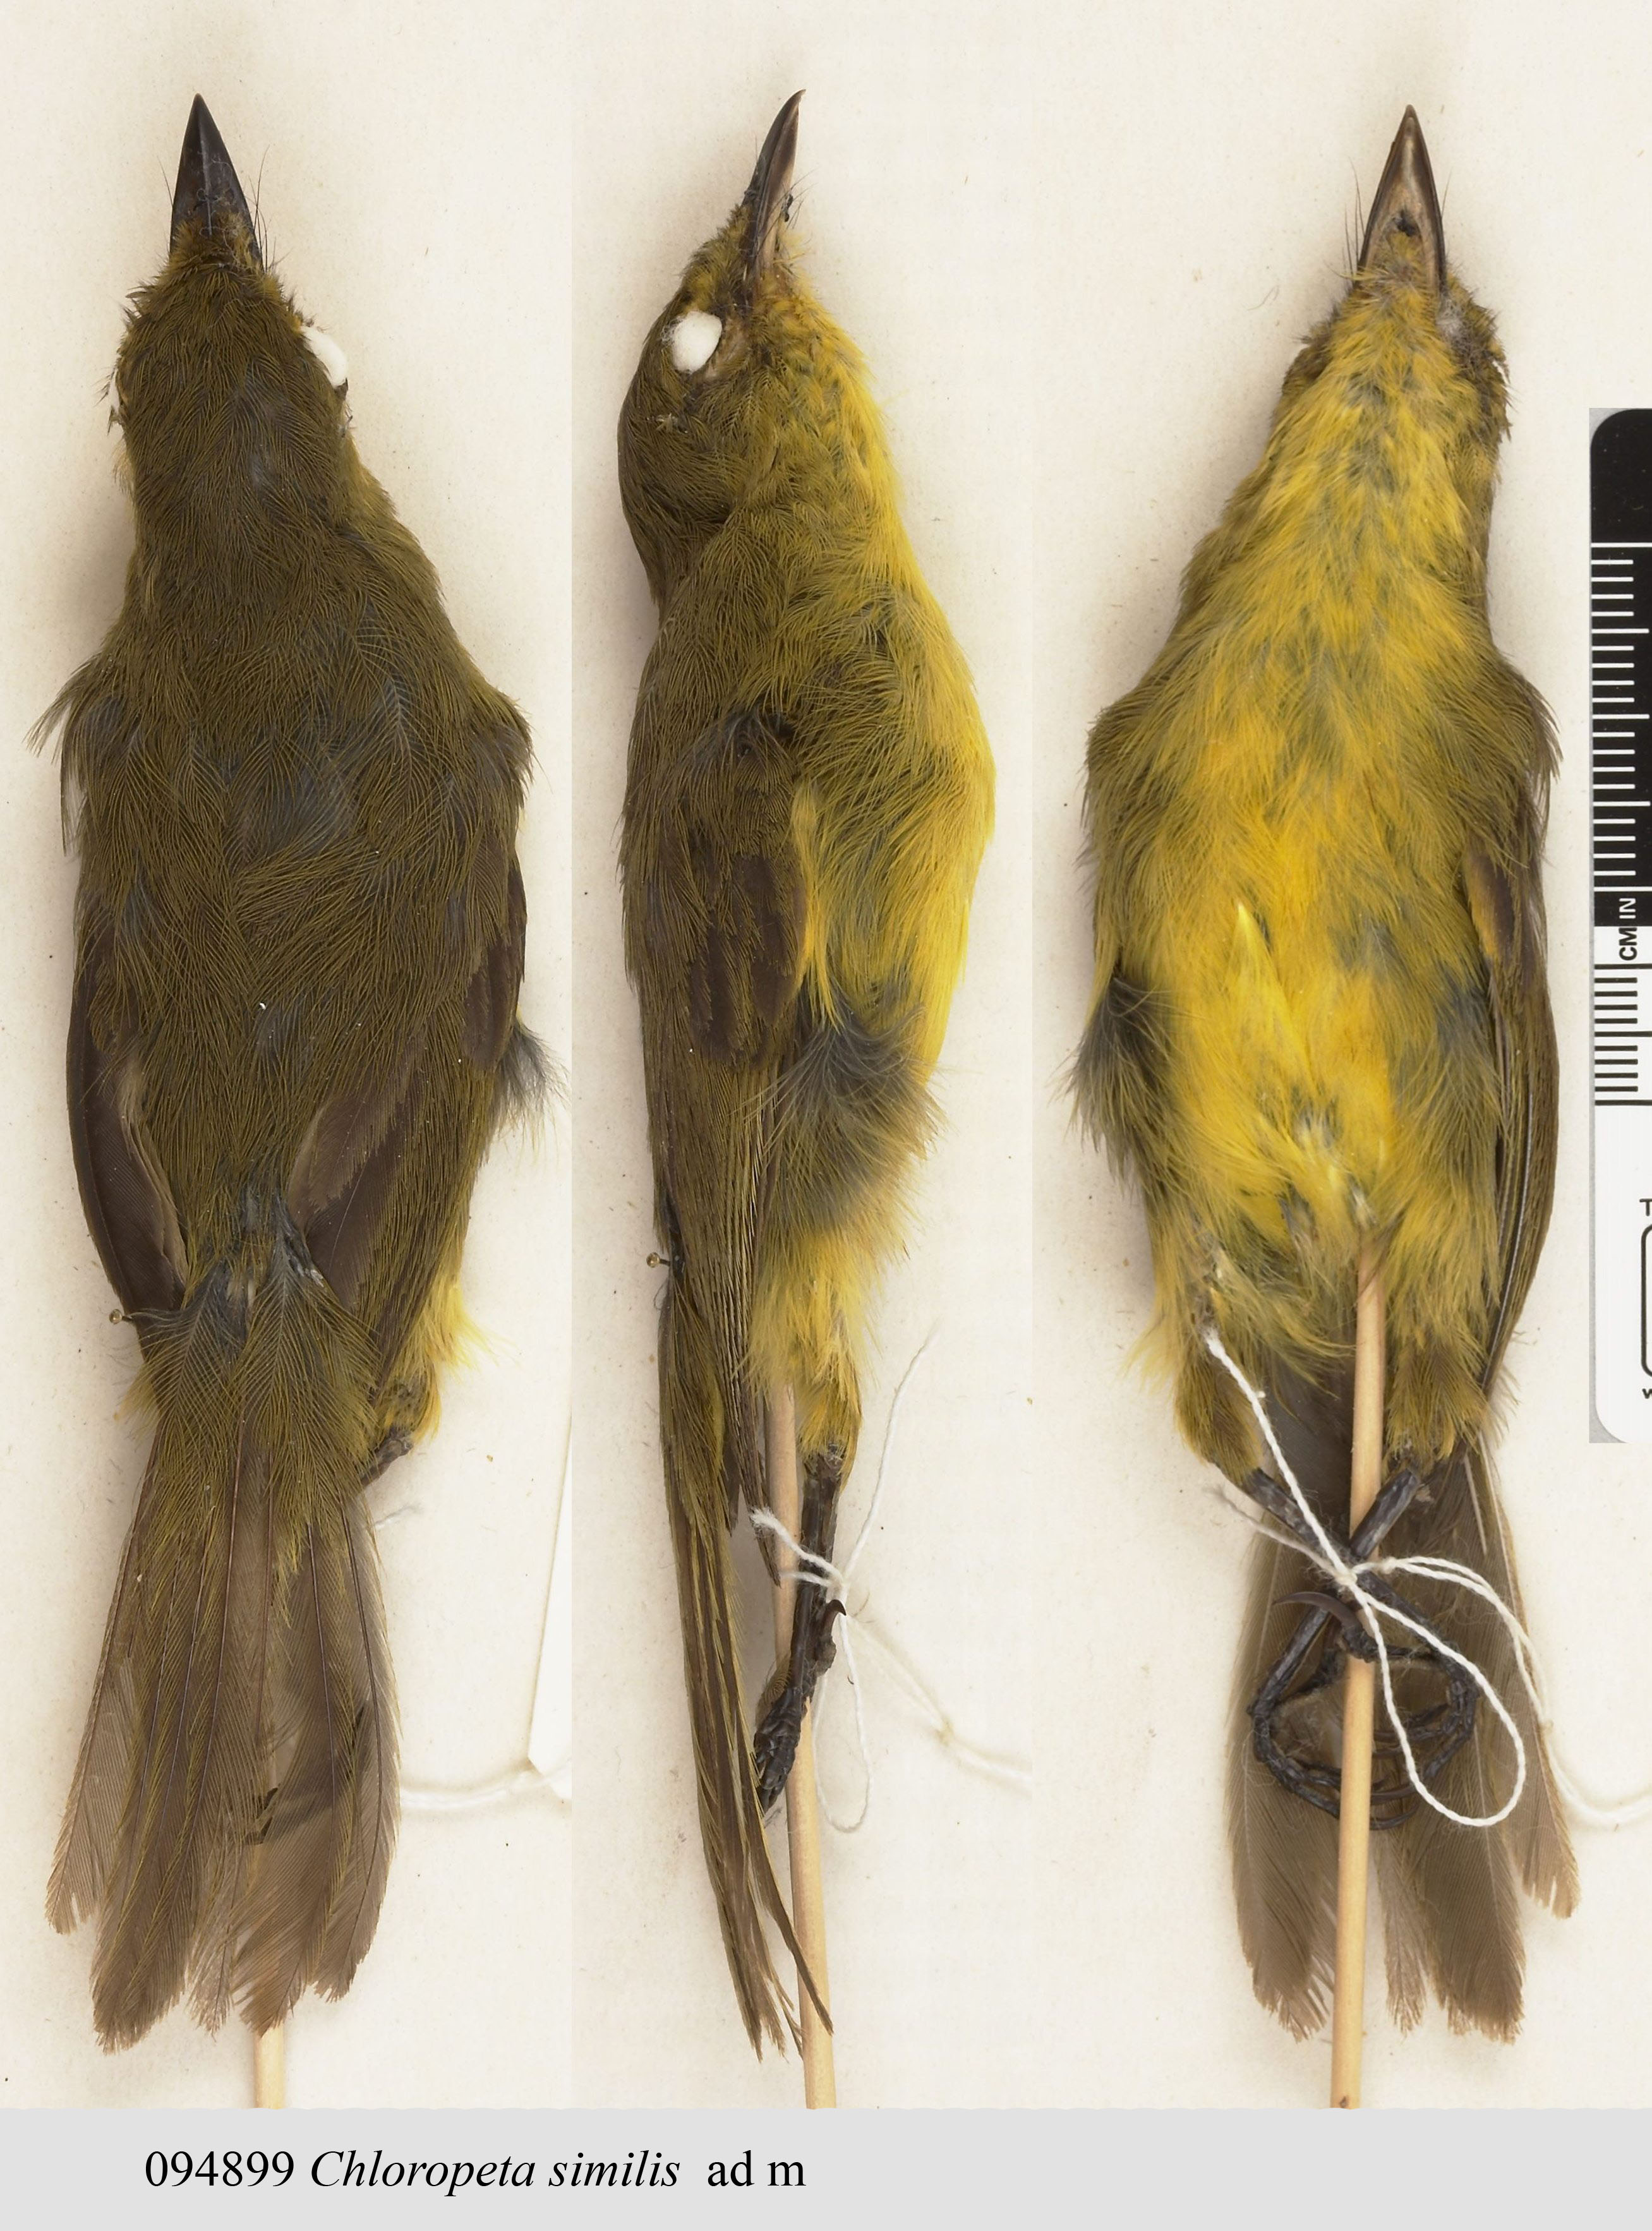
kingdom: Animalia
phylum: Chordata
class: Aves
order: Passeriformes
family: Acrocephalidae
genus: Iduna
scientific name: Iduna similis
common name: Mountain yellow warbler
